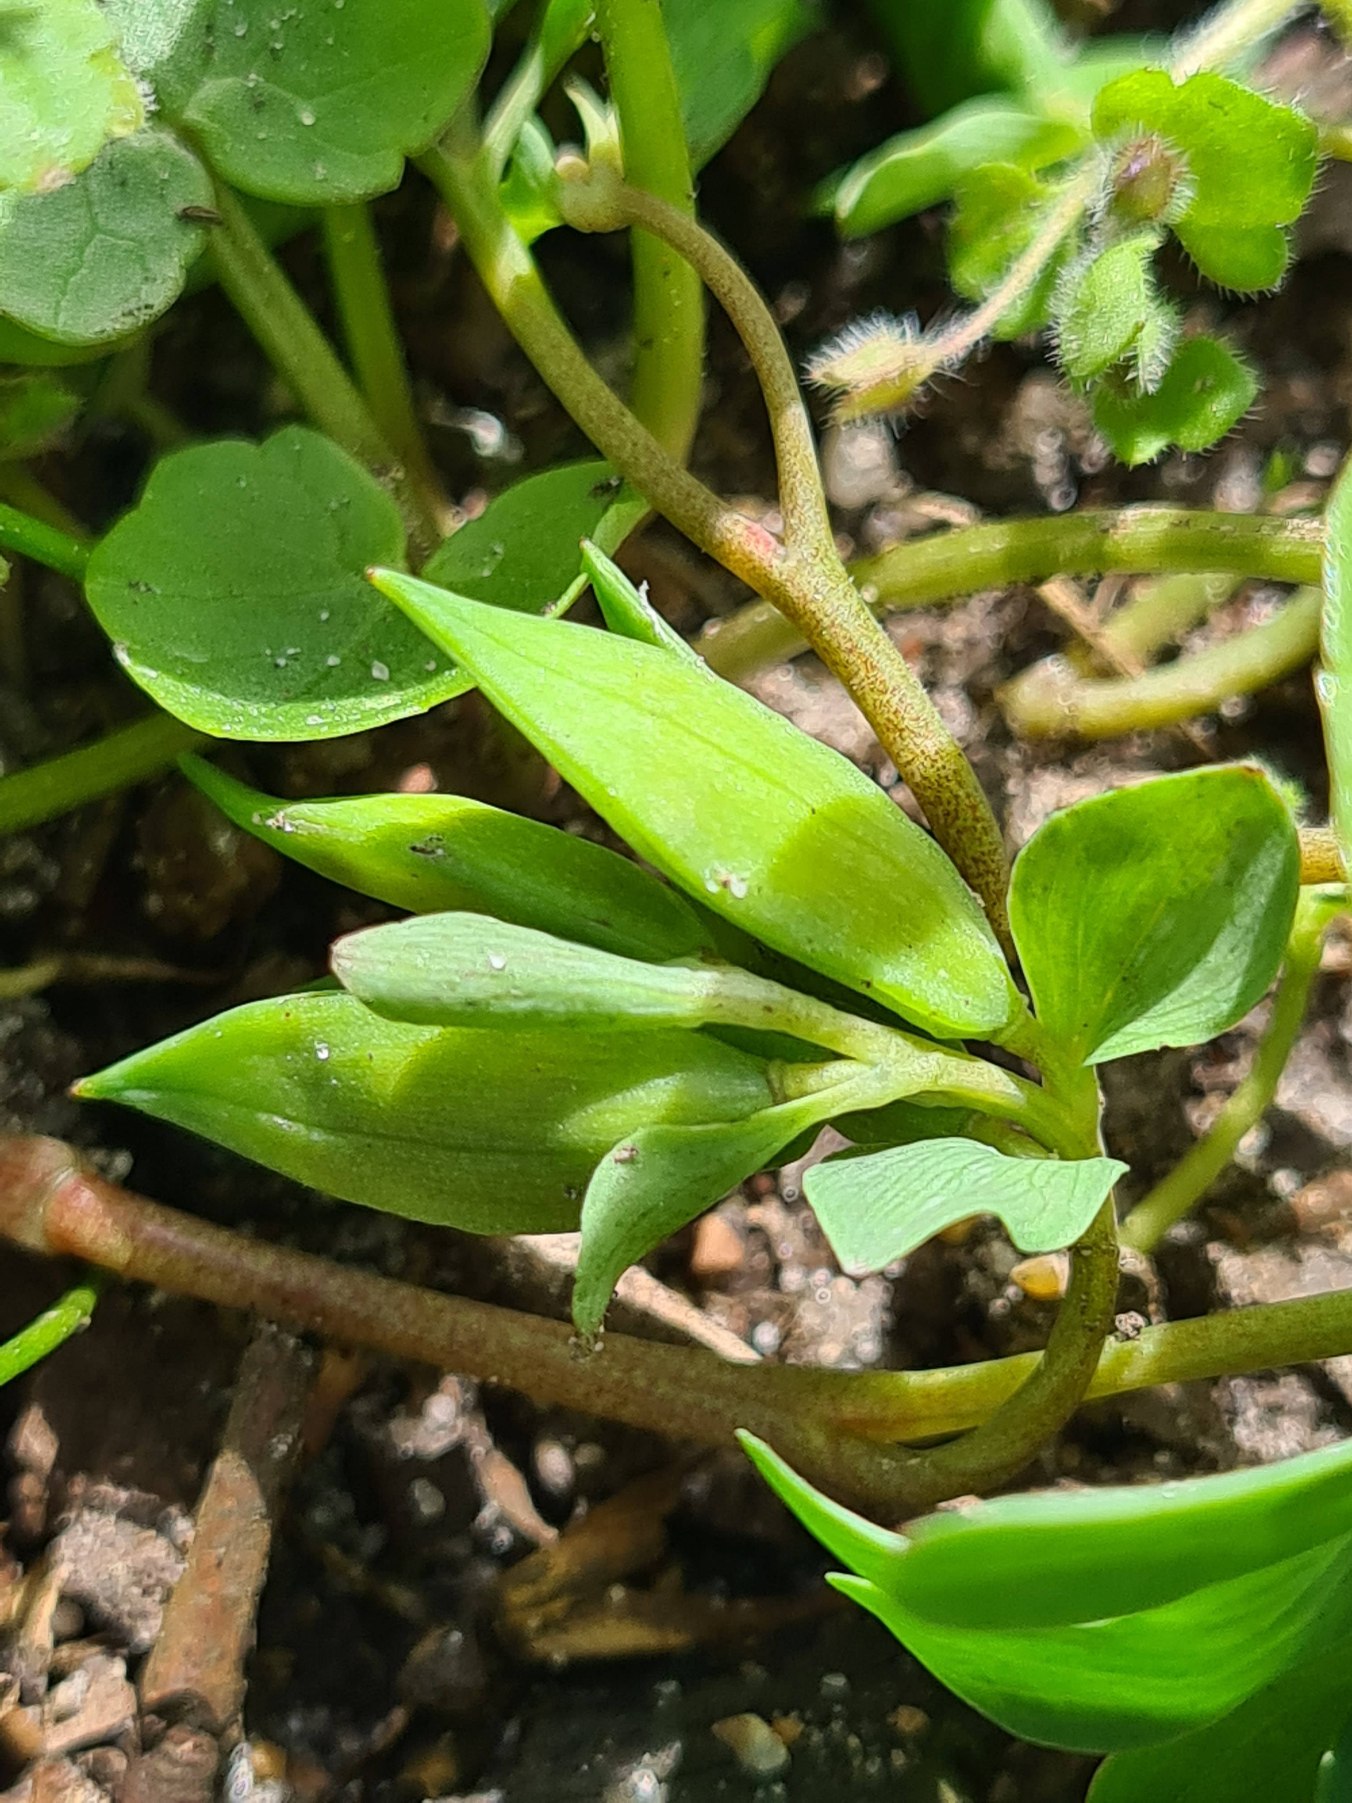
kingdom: Plantae
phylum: Tracheophyta
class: Magnoliopsida
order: Ranunculales
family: Papaveraceae
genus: Corydalis
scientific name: Corydalis intermedia
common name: Liden lærkespore
